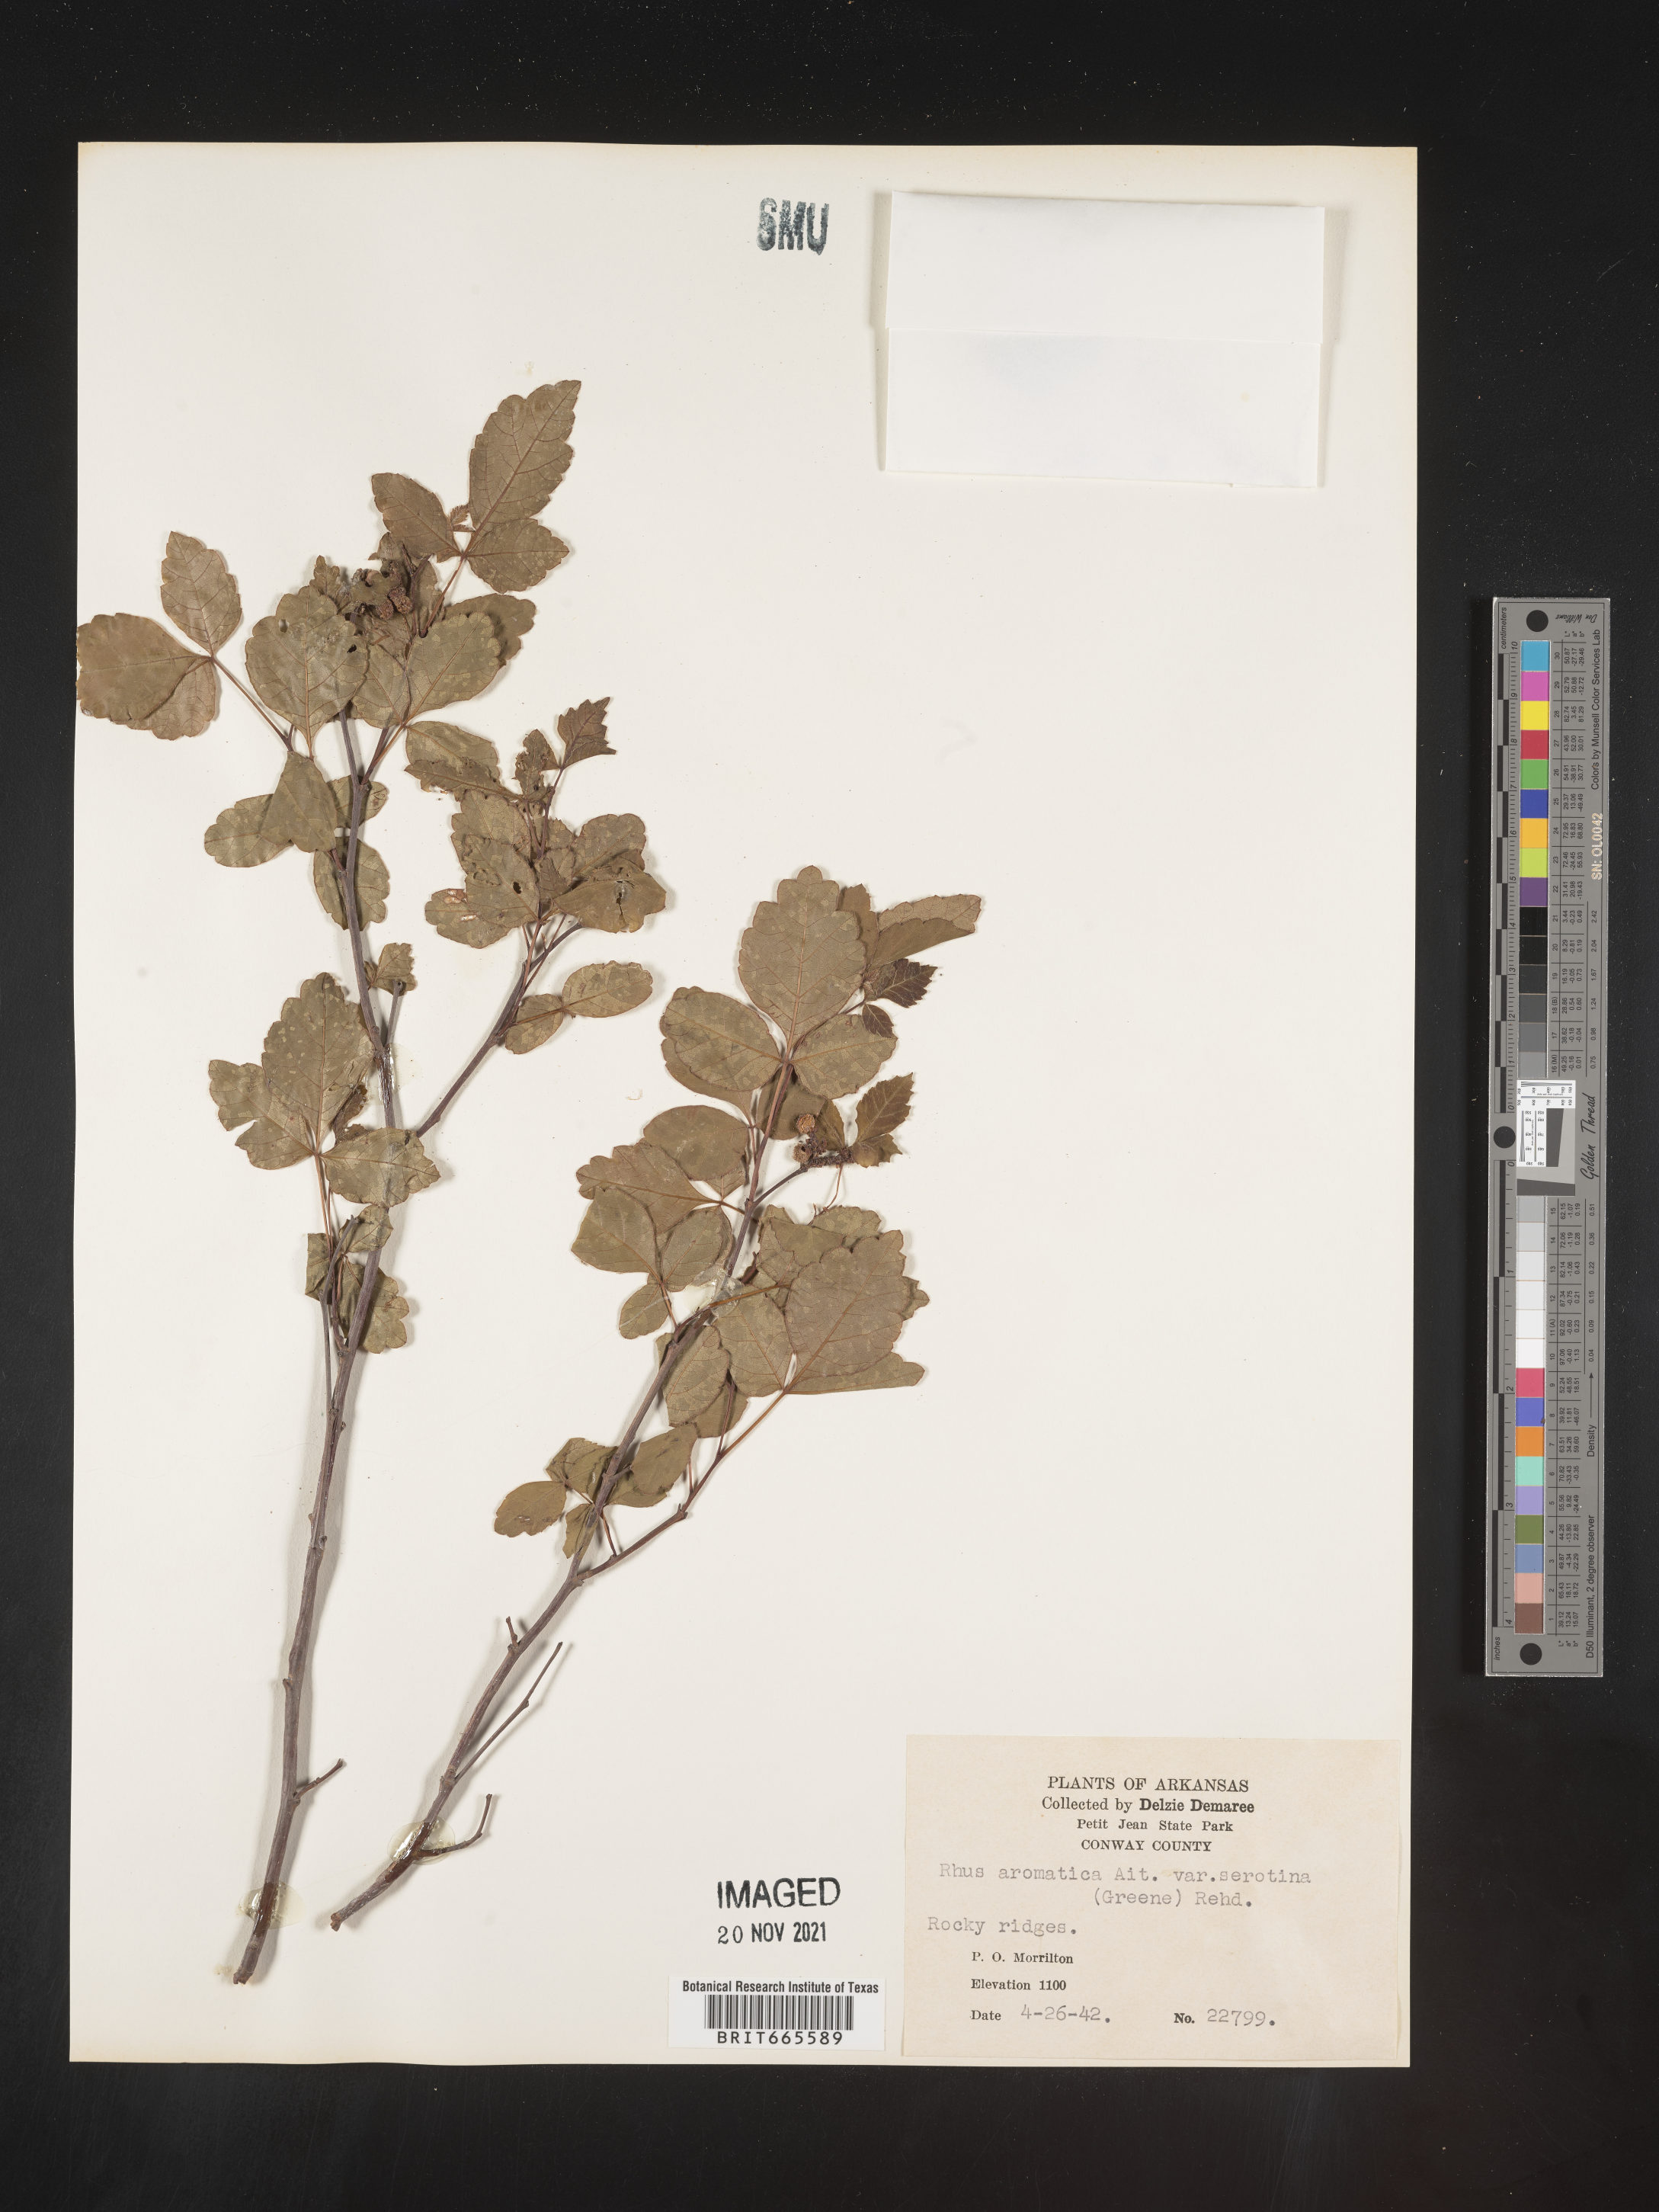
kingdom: Plantae
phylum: Tracheophyta
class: Magnoliopsida
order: Sapindales
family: Anacardiaceae
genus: Rhus
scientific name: Rhus aromatica
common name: Aromatic sumac
